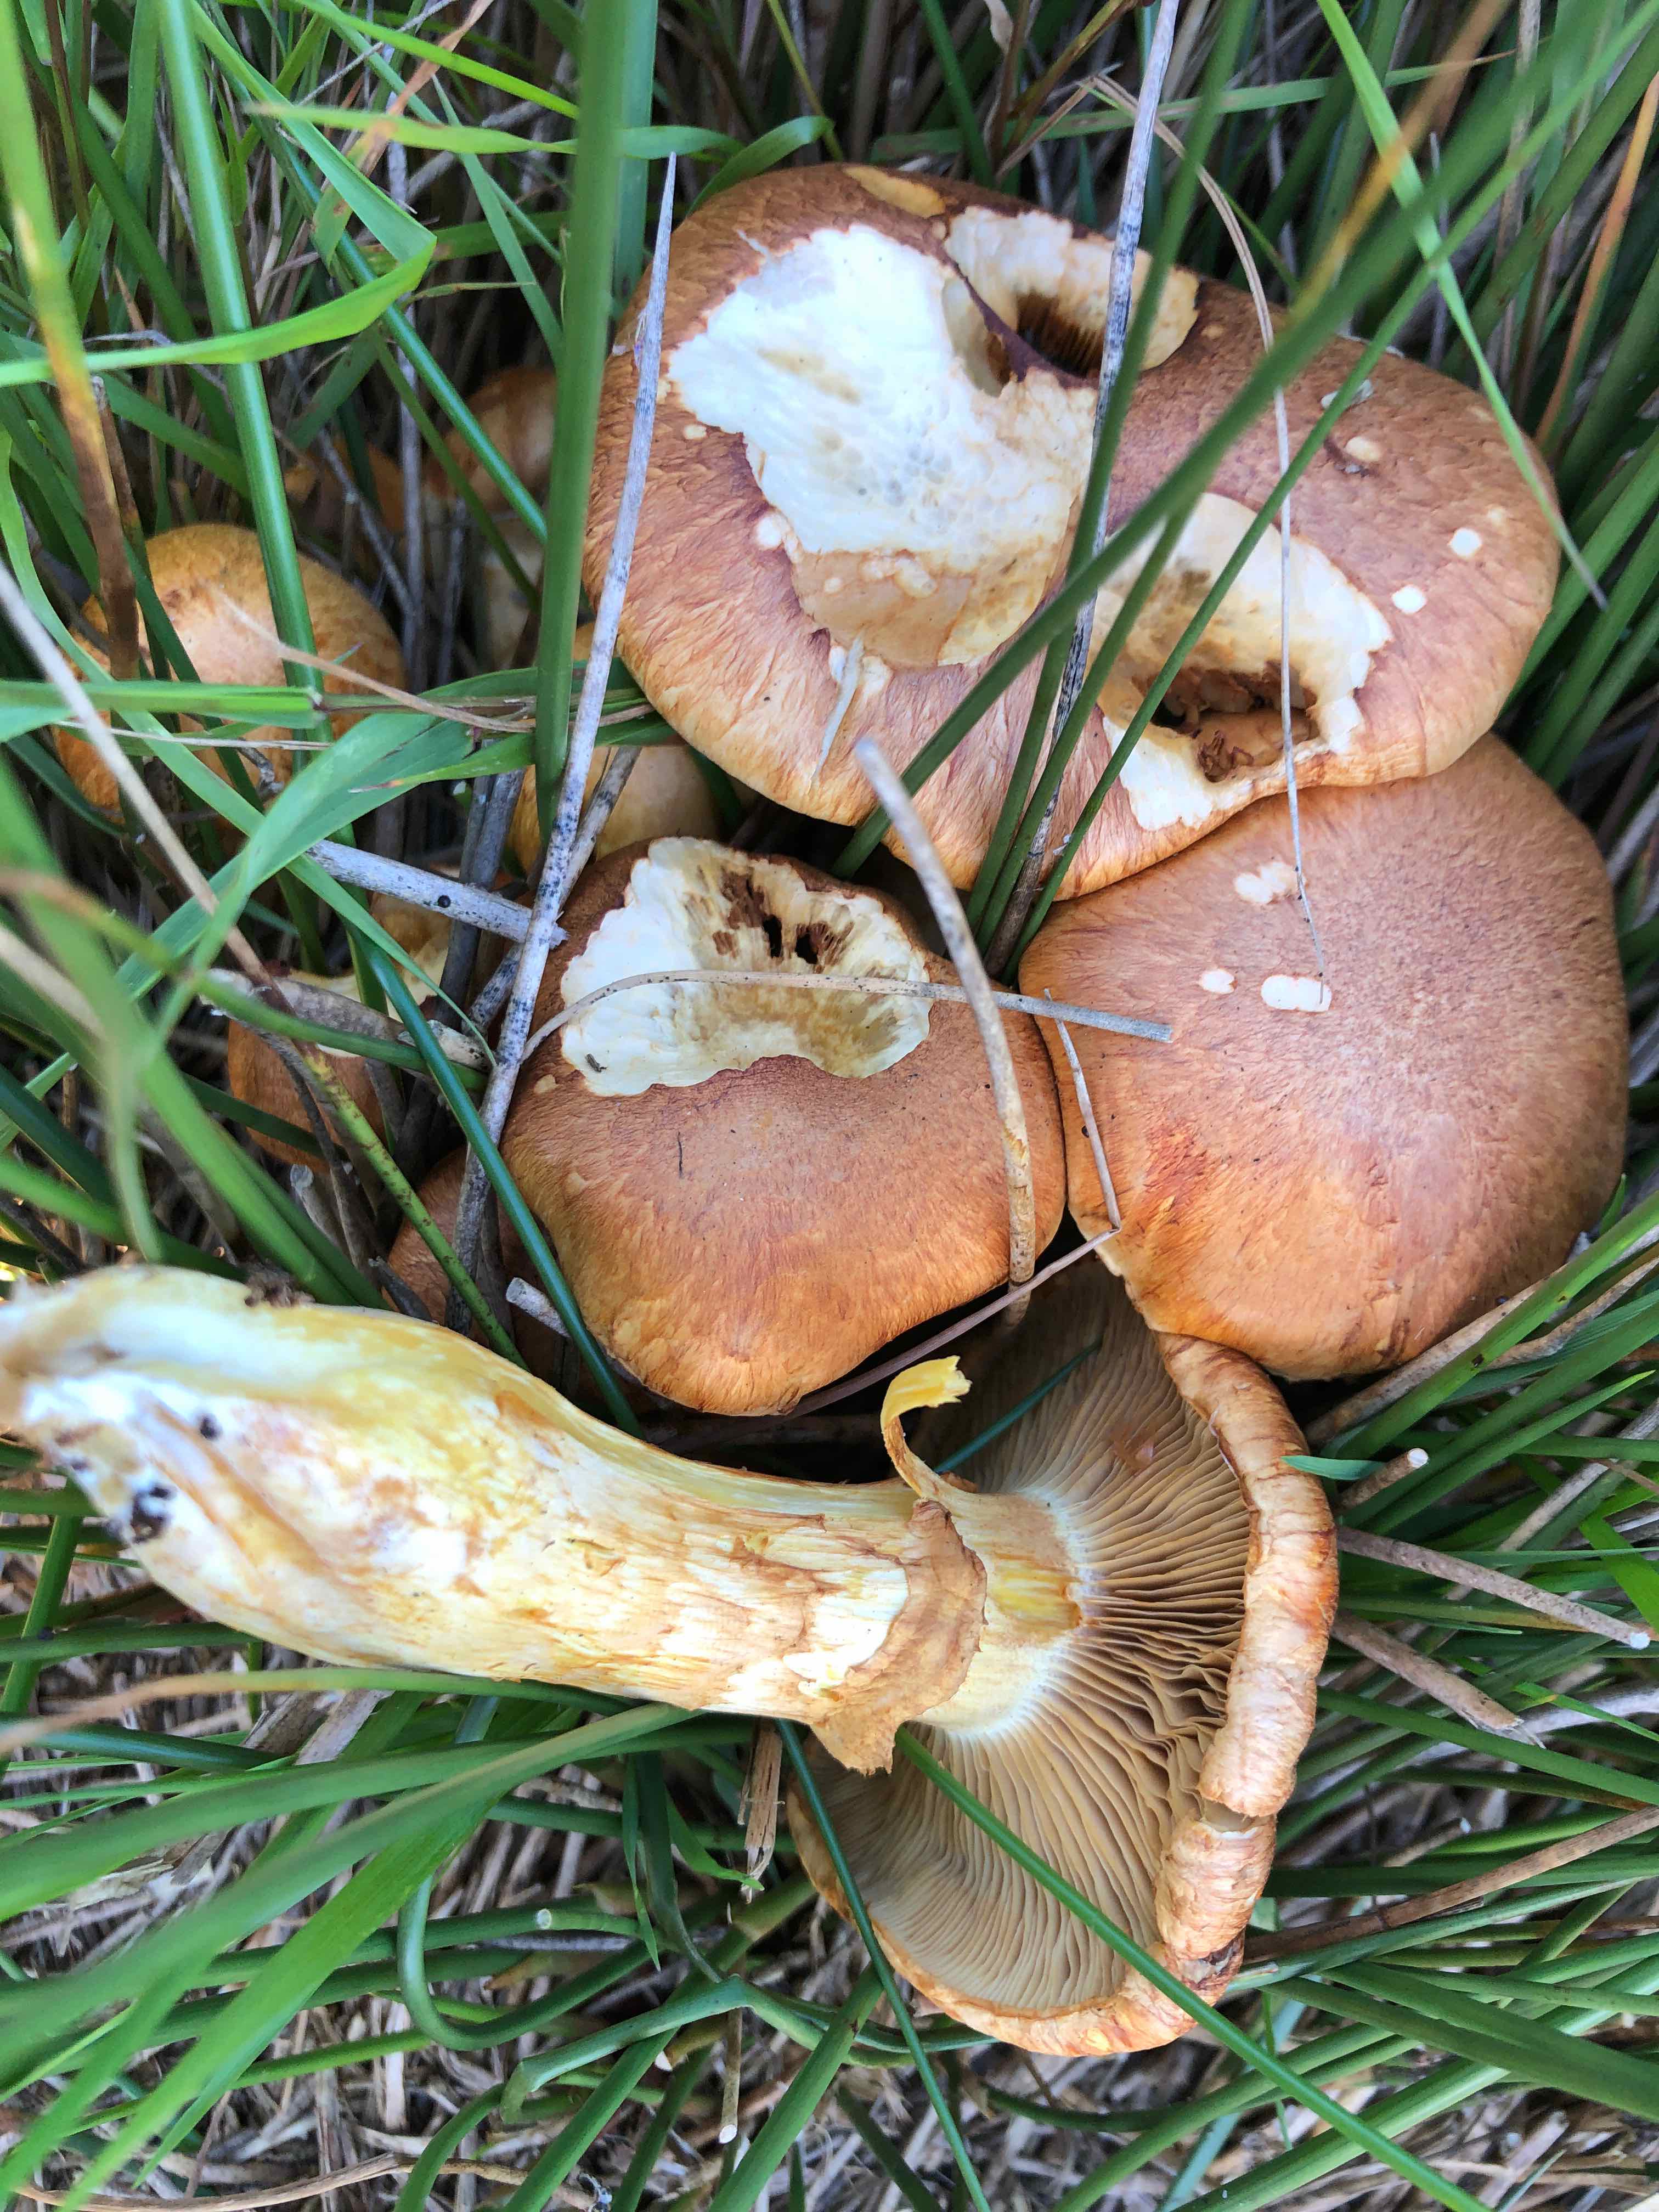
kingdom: Fungi
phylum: Basidiomycota
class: Agaricomycetes
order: Agaricales
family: Hymenogastraceae
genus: Gymnopilus
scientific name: Gymnopilus spectabilis
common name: fibret flammehat
